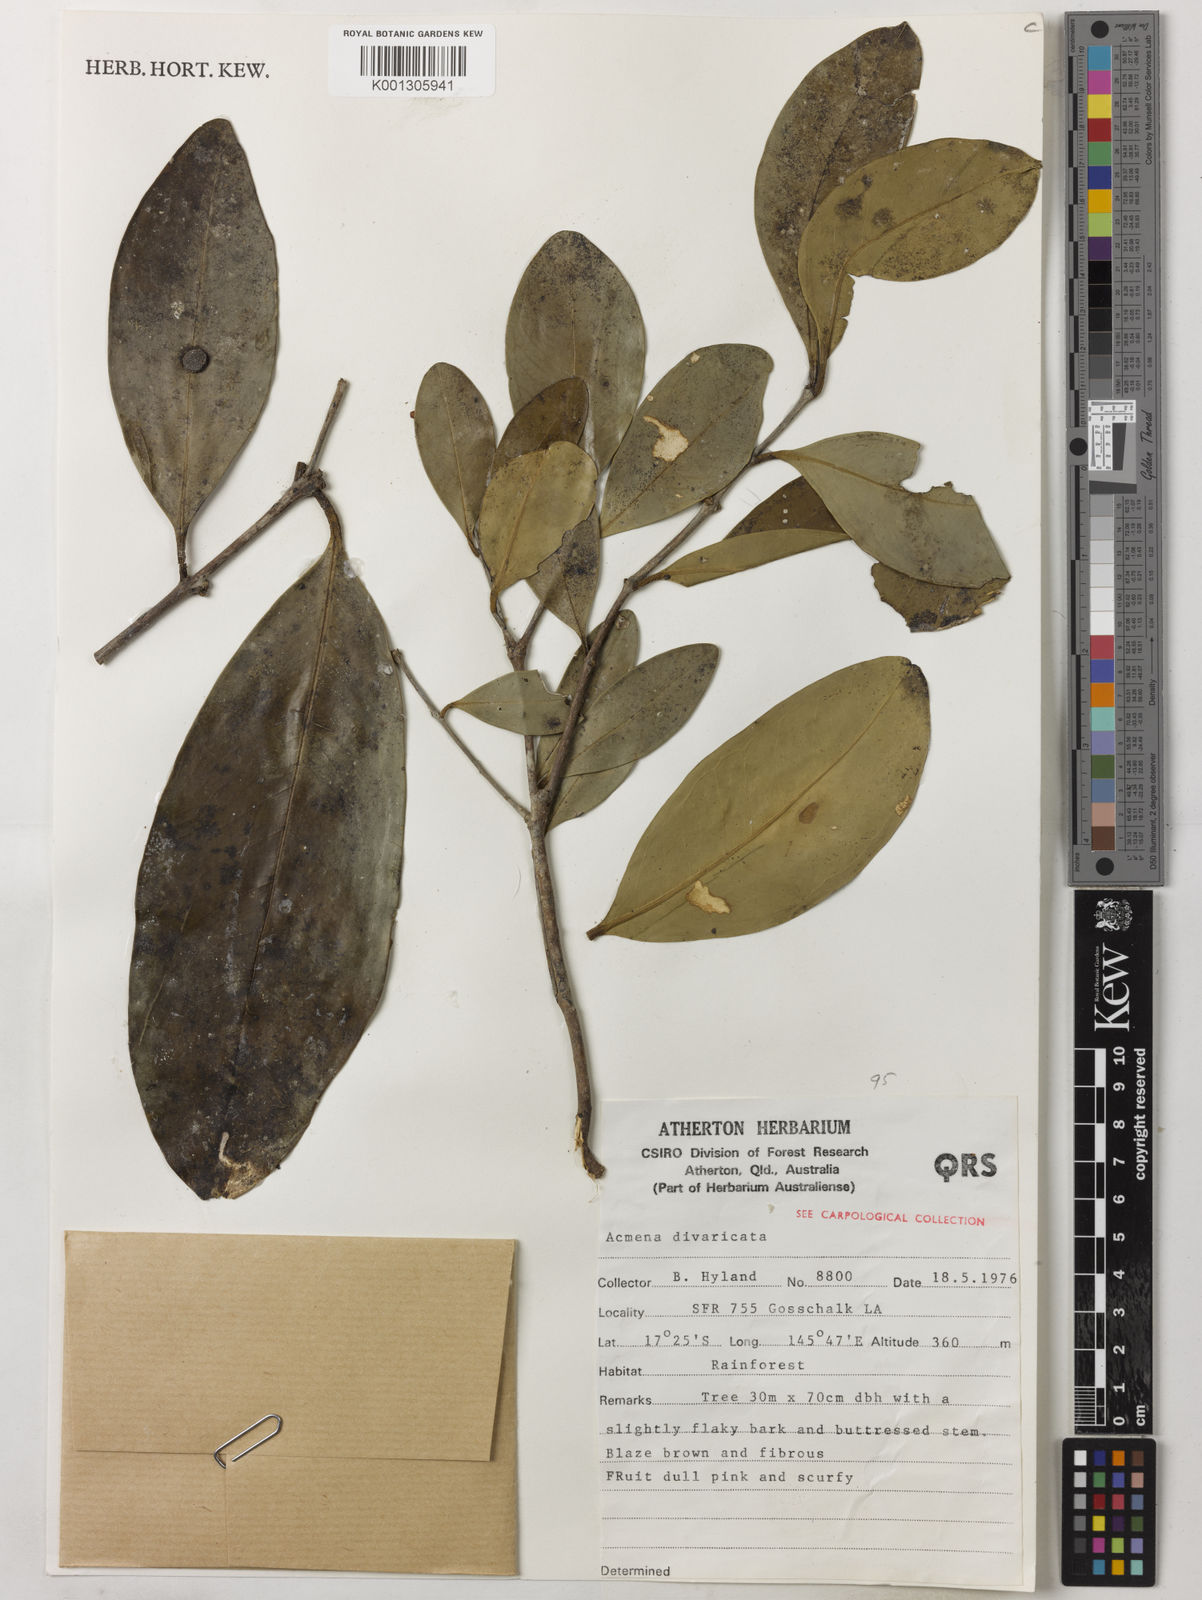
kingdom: Plantae
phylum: Tracheophyta
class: Magnoliopsida
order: Myrtales
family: Myrtaceae
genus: Syzygium
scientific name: Syzygium divaricatum
